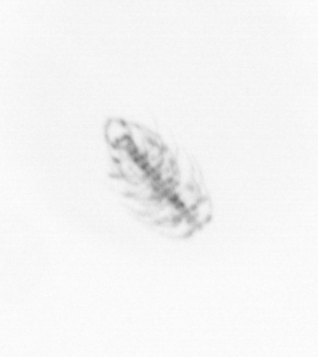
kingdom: Chromista
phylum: Ochrophyta
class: Bacillariophyceae
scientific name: Bacillariophyceae
